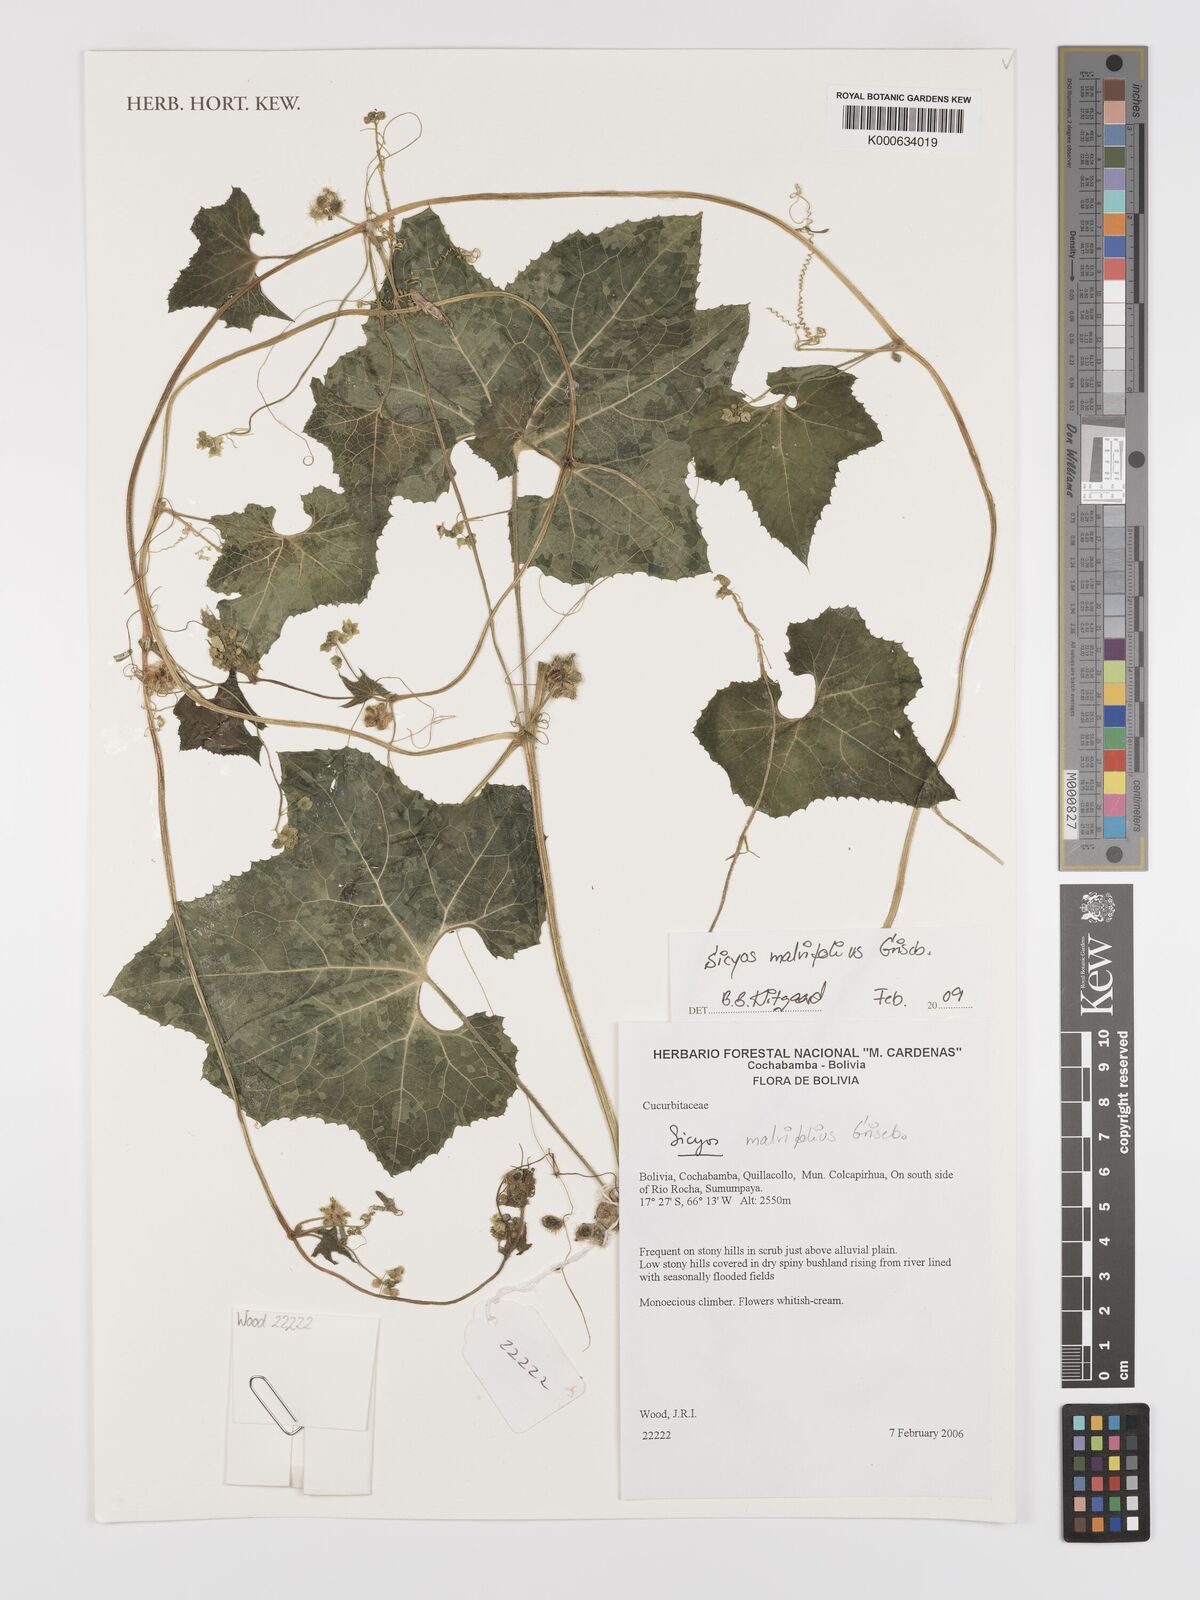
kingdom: Plantae
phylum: Tracheophyta
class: Magnoliopsida
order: Cucurbitales
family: Cucurbitaceae
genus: Sicyos
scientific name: Sicyos malvifolius
